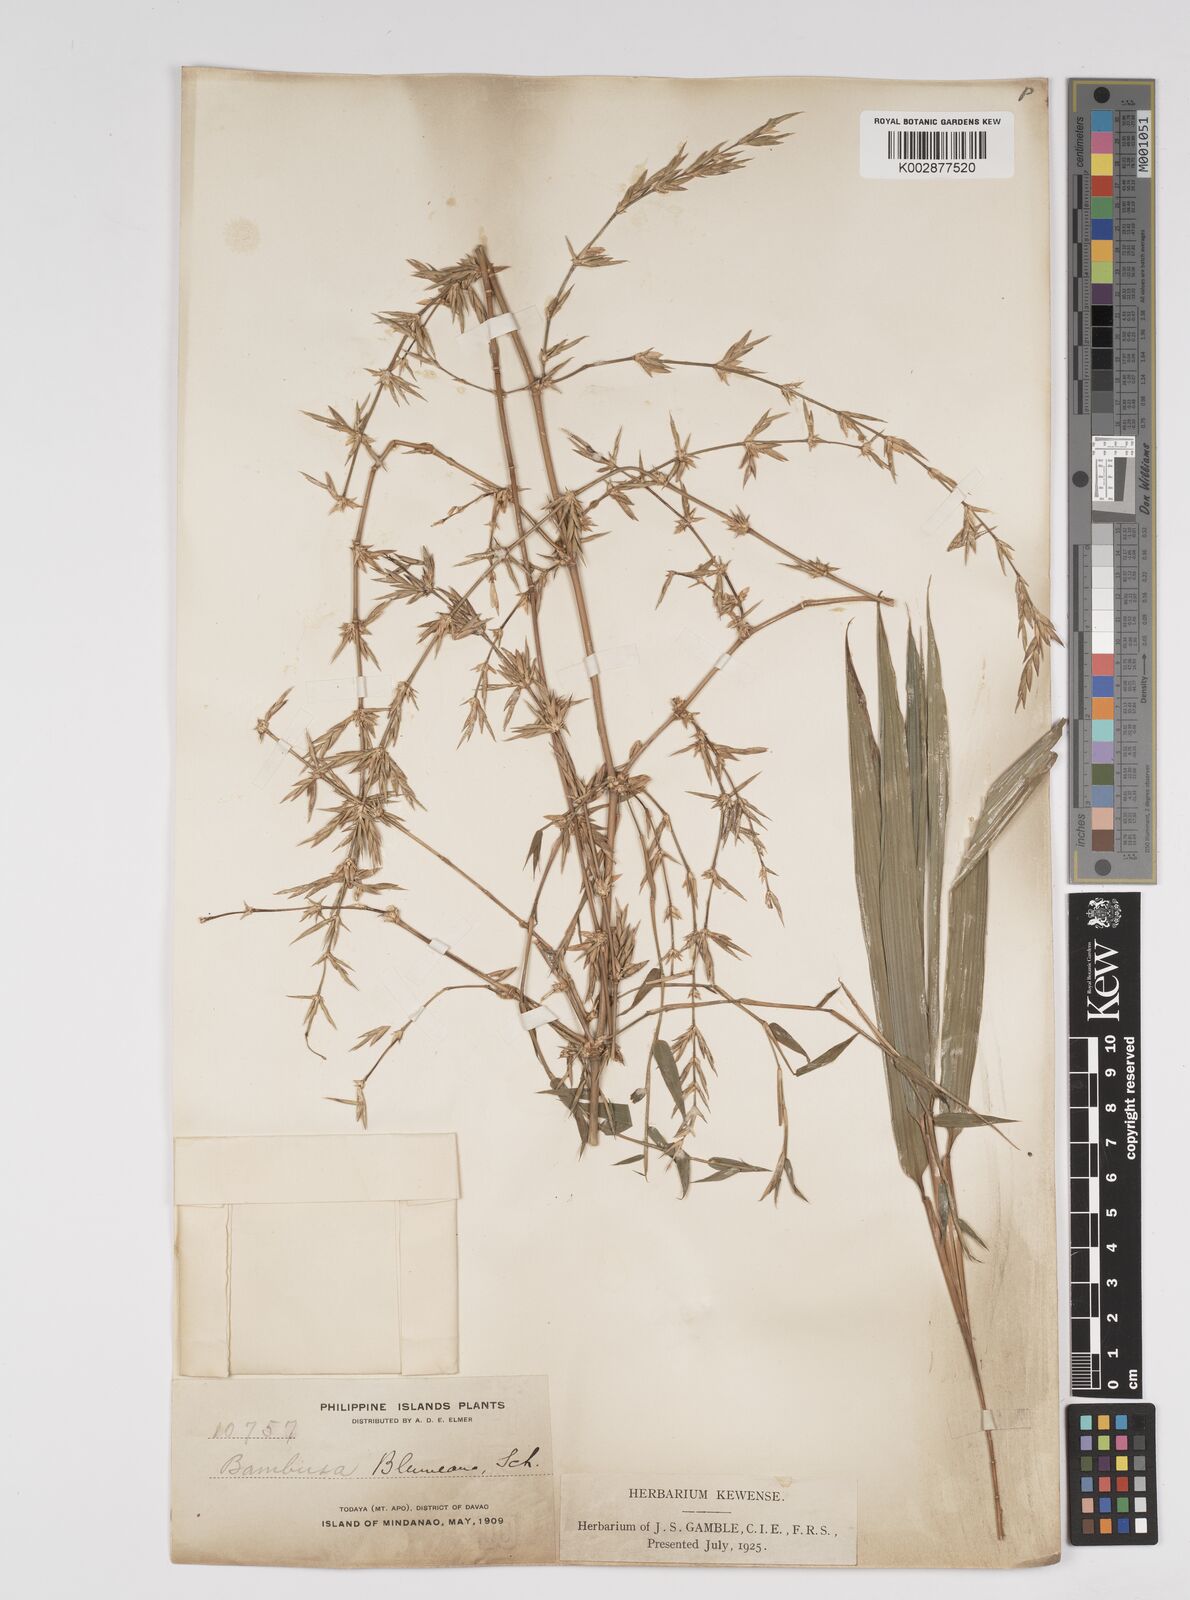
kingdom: Plantae
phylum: Tracheophyta
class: Liliopsida
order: Poales
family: Poaceae
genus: Bambusa
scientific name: Bambusa spinosa
